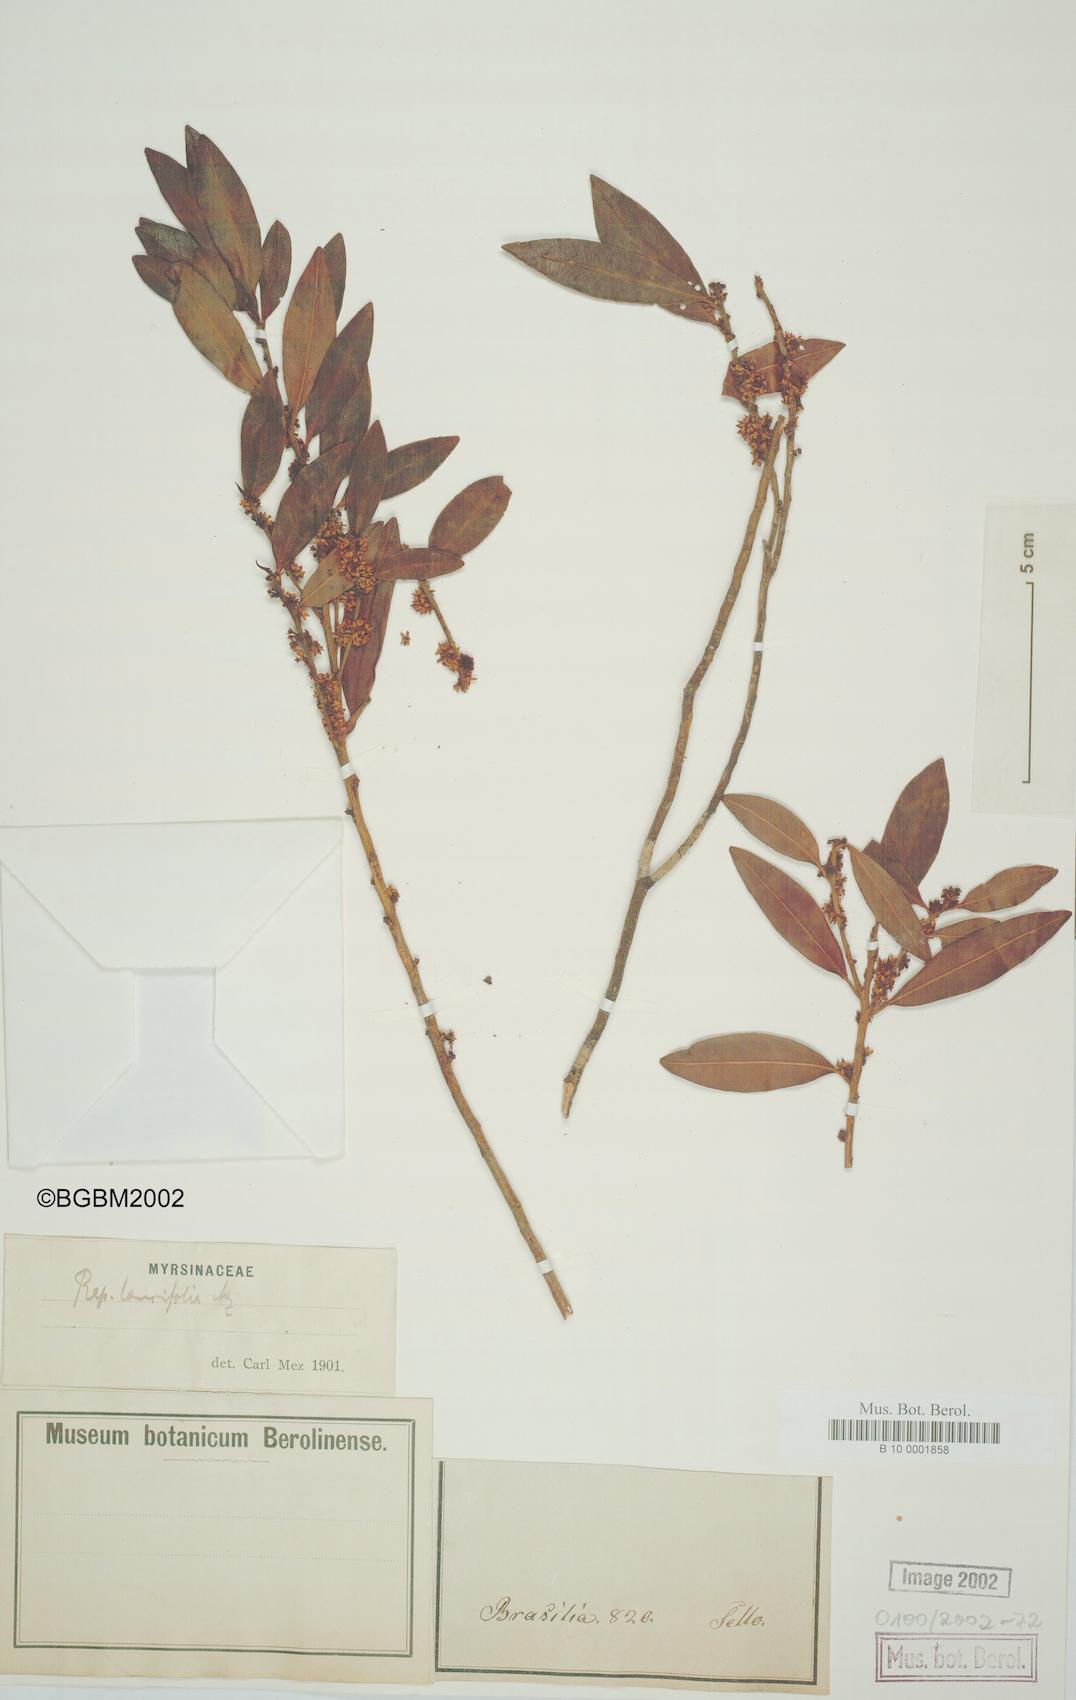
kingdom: Plantae
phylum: Tracheophyta
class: Magnoliopsida
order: Ericales
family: Primulaceae
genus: Myrsine
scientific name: Myrsine latifolia
